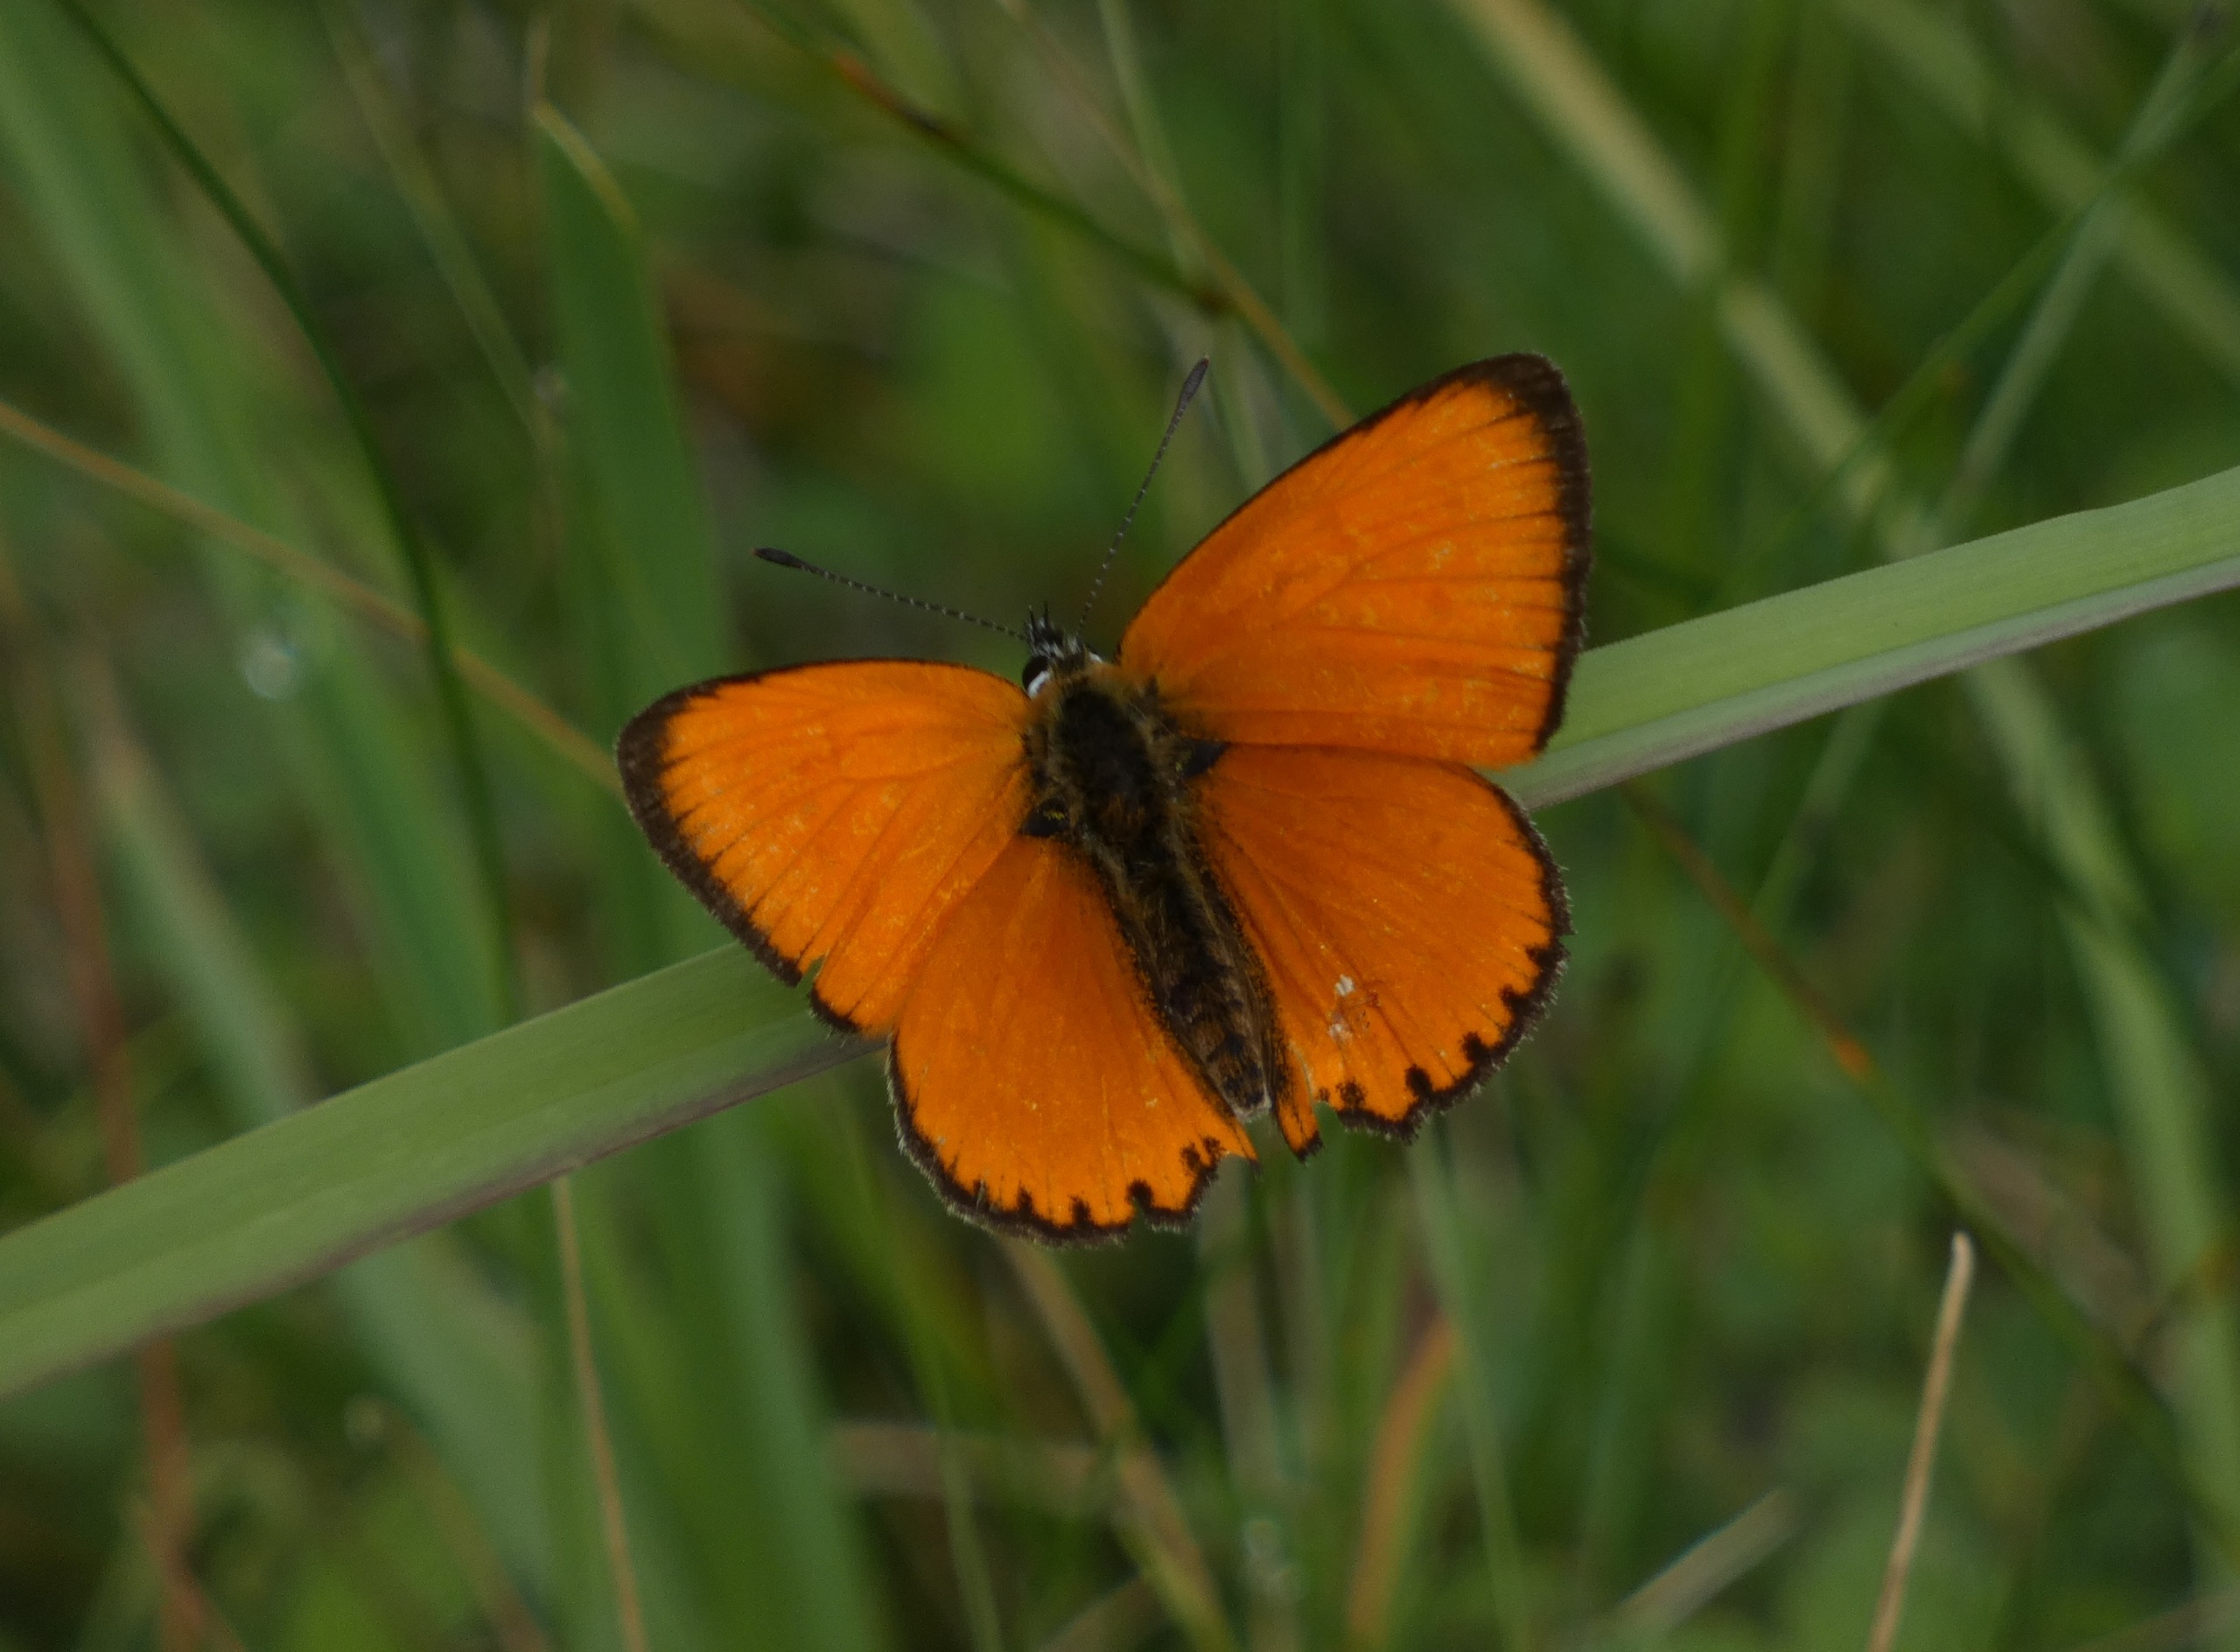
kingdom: Animalia
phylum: Arthropoda
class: Insecta
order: Lepidoptera
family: Lycaenidae
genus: Lycaena
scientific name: Lycaena virgaureae
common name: Dukatsommerfugl
